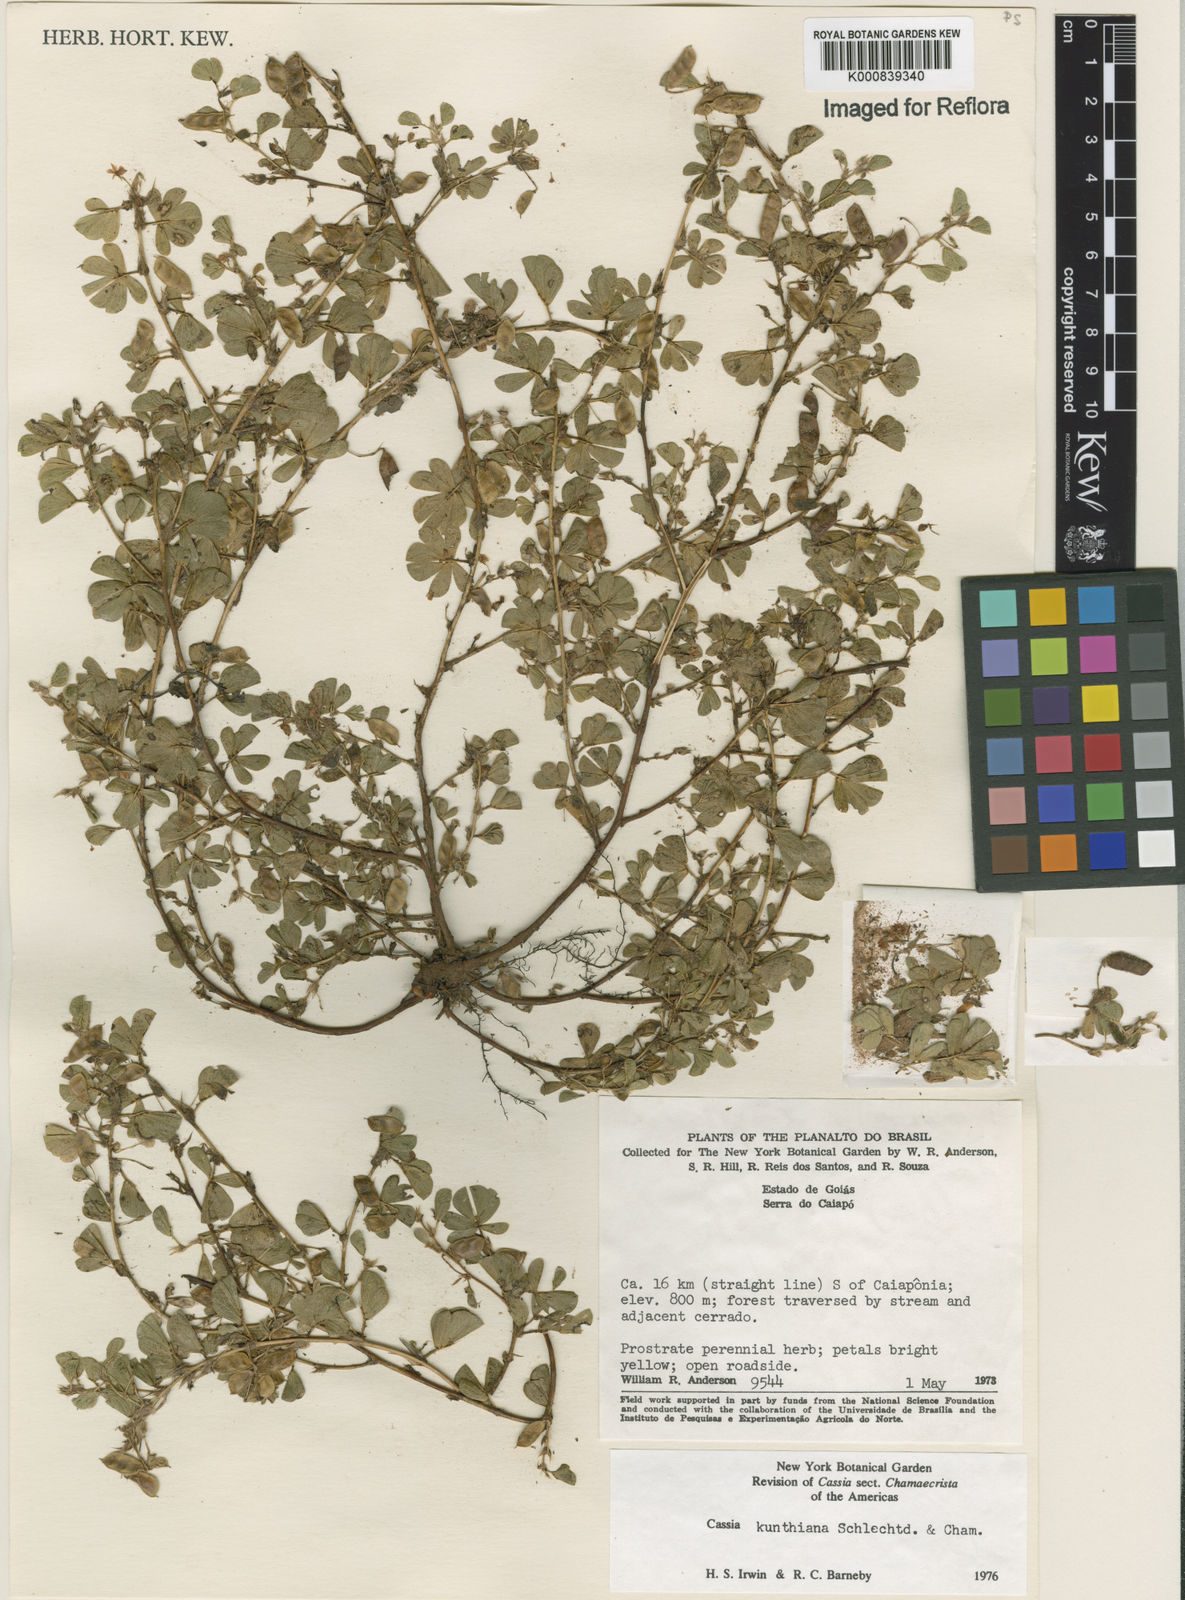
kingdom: Plantae
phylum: Tracheophyta
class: Magnoliopsida
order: Fabales
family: Fabaceae
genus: Chamaecrista
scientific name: Chamaecrista kunthiana
